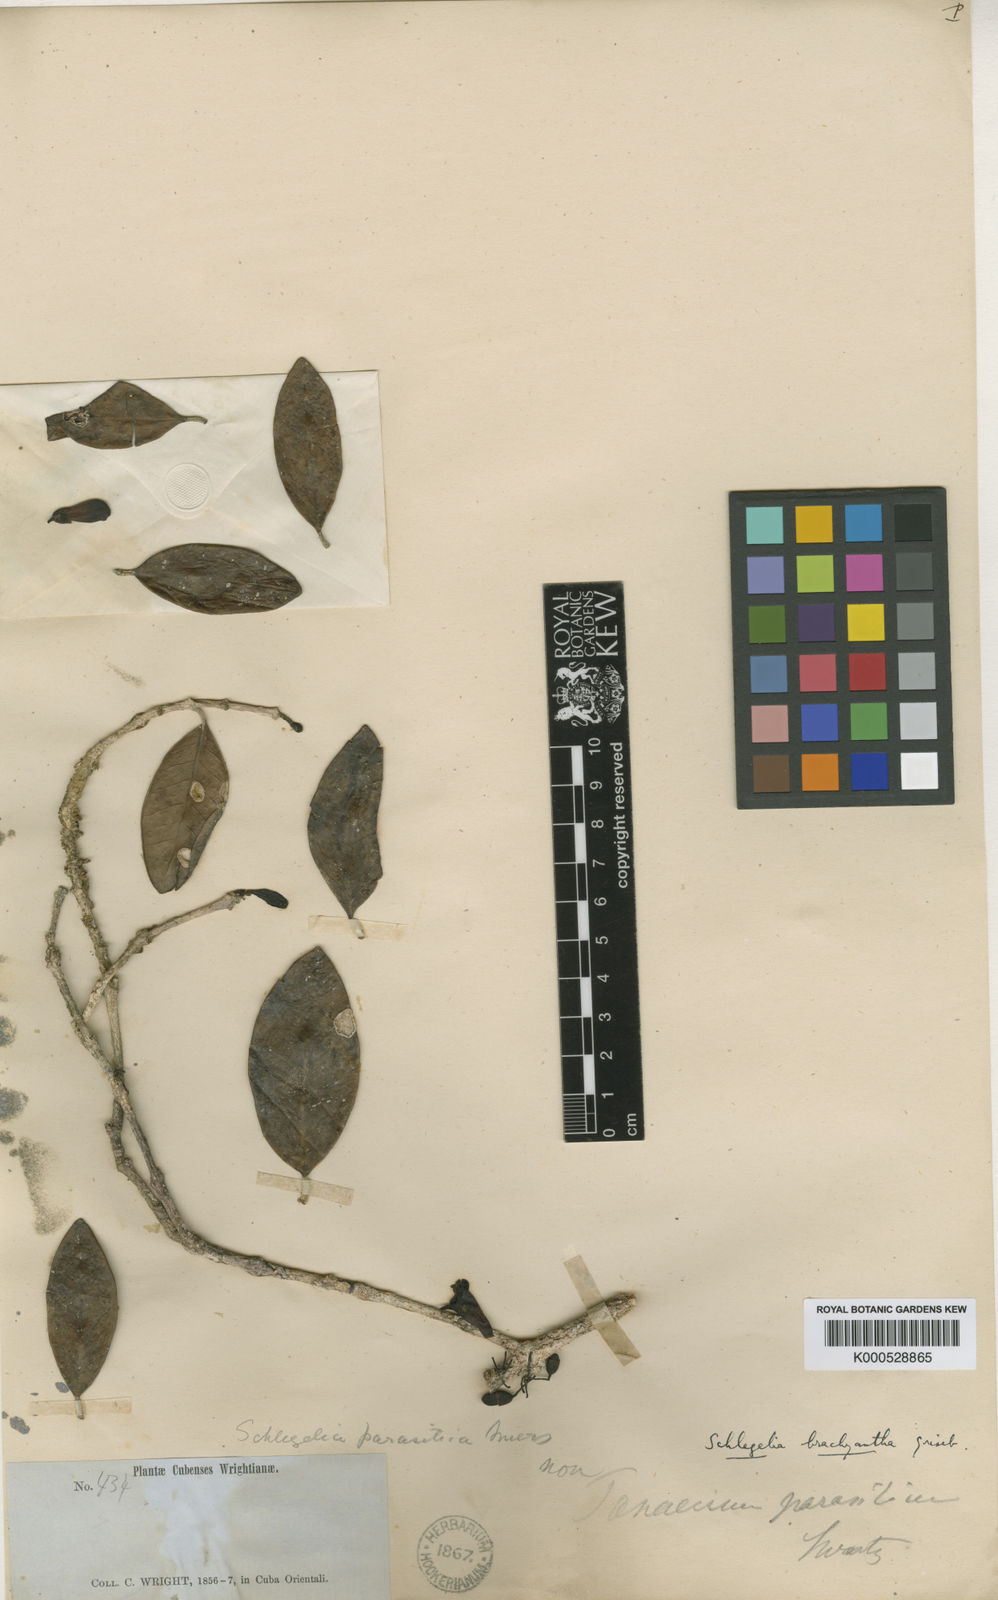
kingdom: Plantae
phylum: Tracheophyta
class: Magnoliopsida
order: Lamiales
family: Schlegeliaceae
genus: Schlegelia
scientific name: Schlegelia brachyantha
